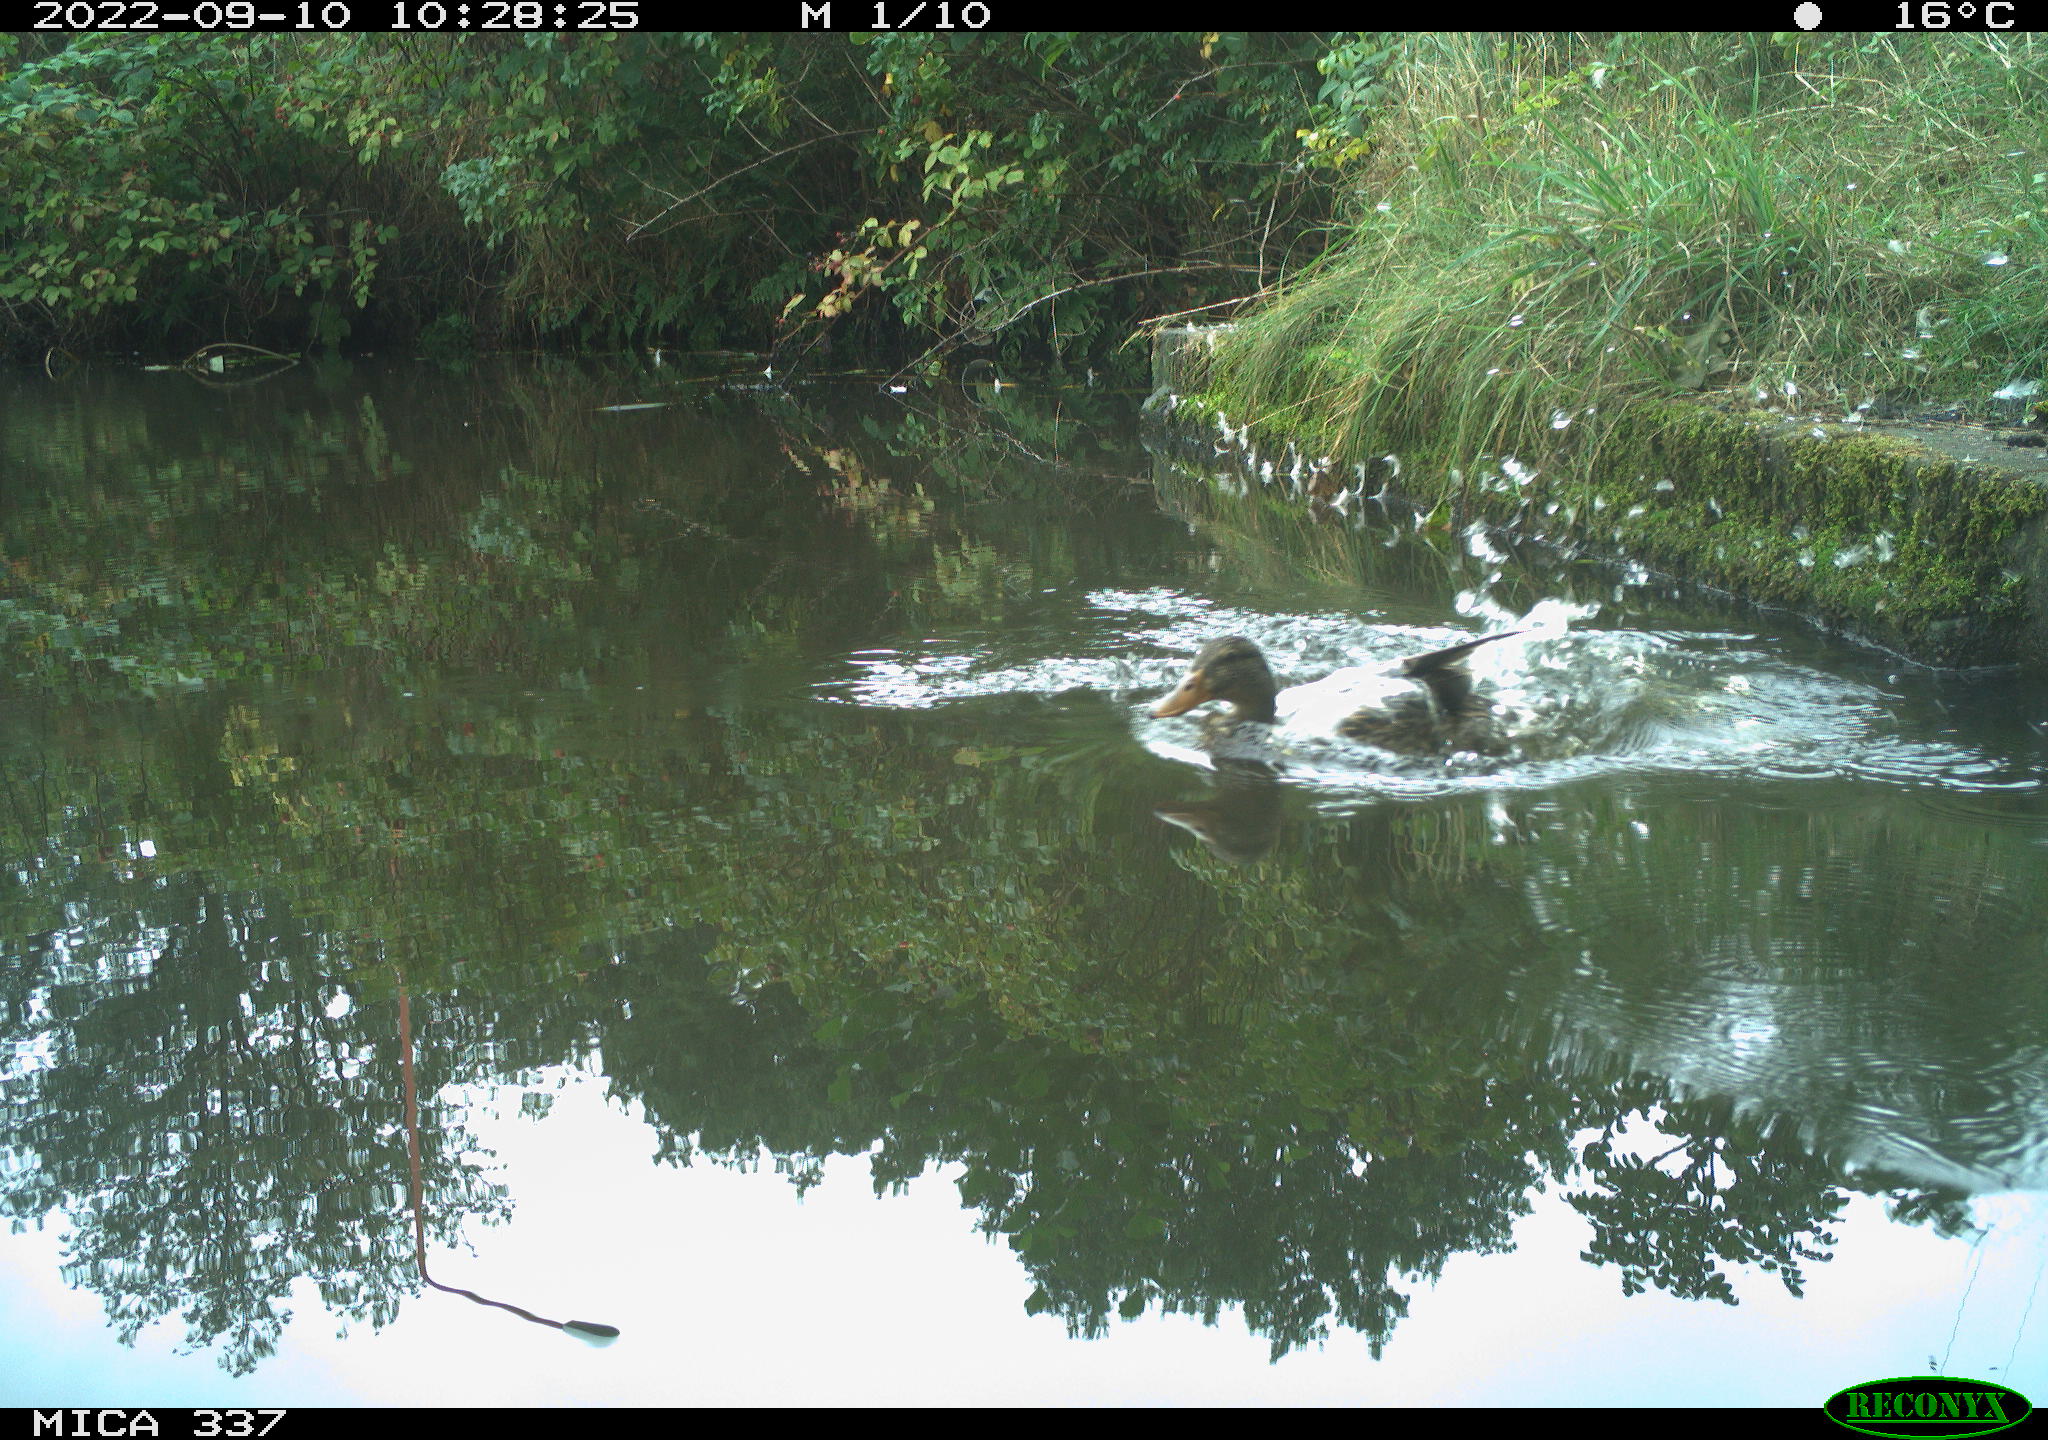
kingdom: Animalia
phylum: Chordata
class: Aves
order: Anseriformes
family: Anatidae
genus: Anas
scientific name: Anas platyrhynchos
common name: Mallard
